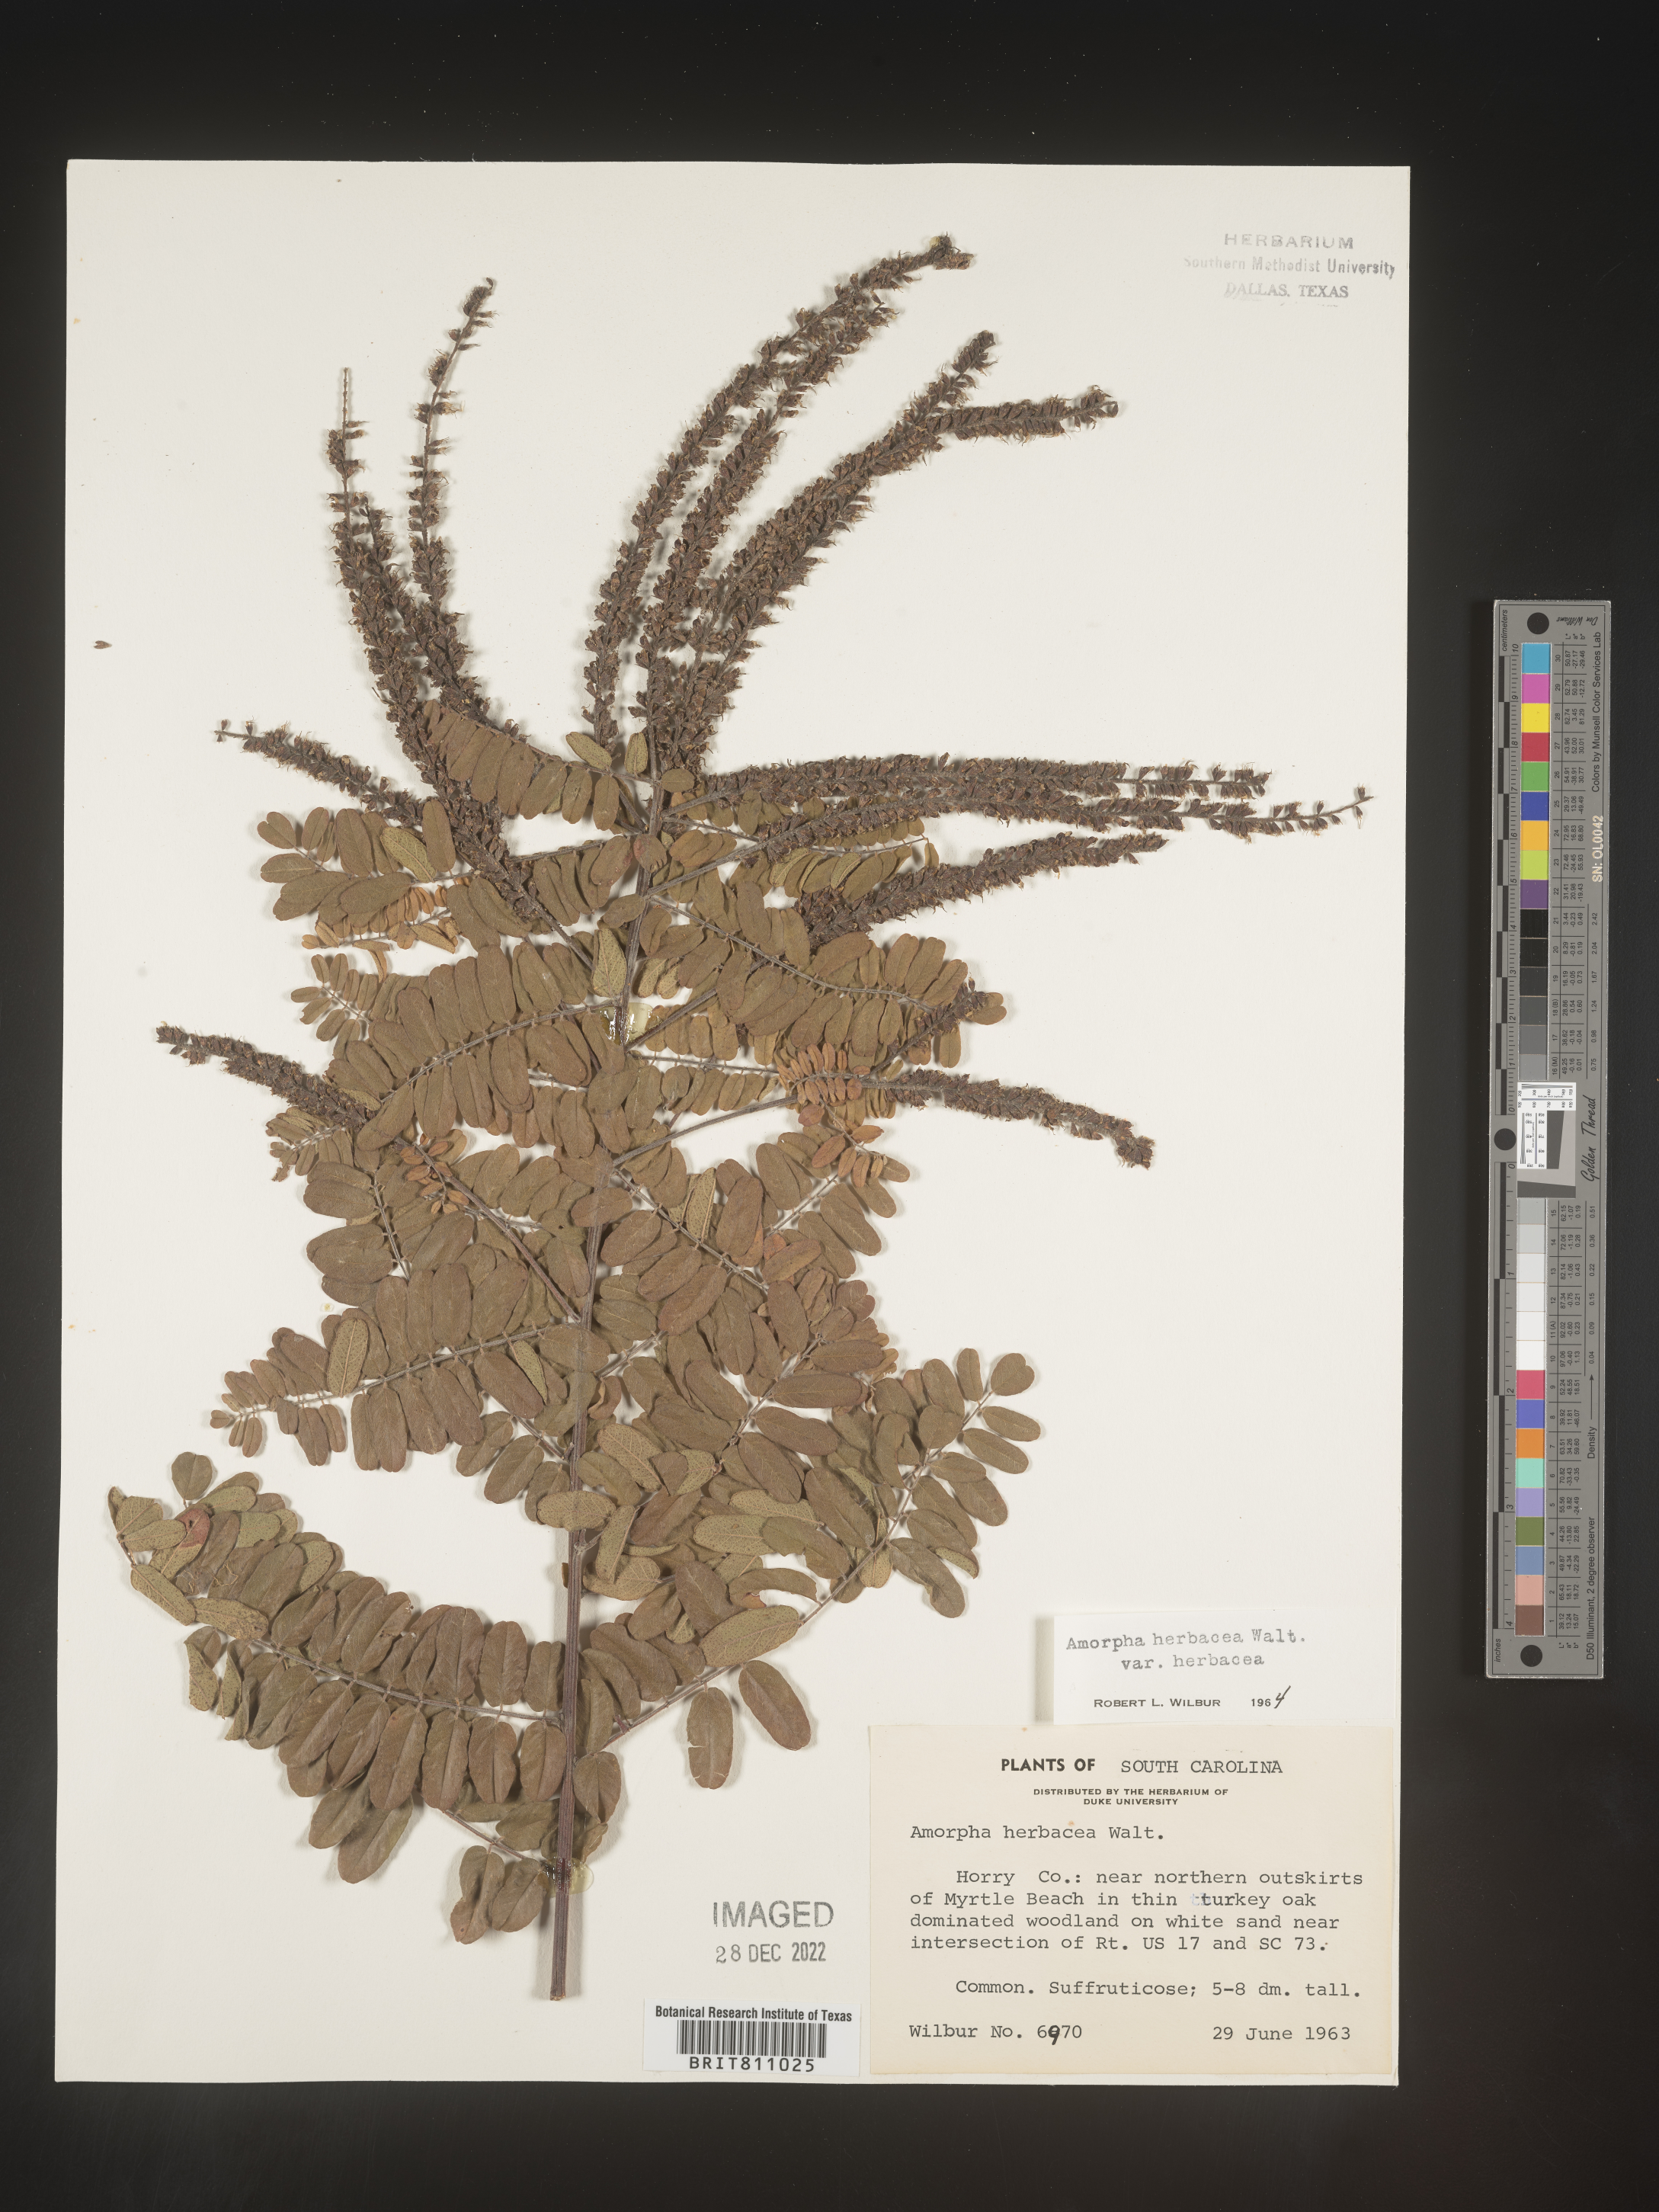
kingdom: Plantae
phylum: Tracheophyta
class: Magnoliopsida
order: Fabales
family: Fabaceae
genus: Amorpha
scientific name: Amorpha herbacea
